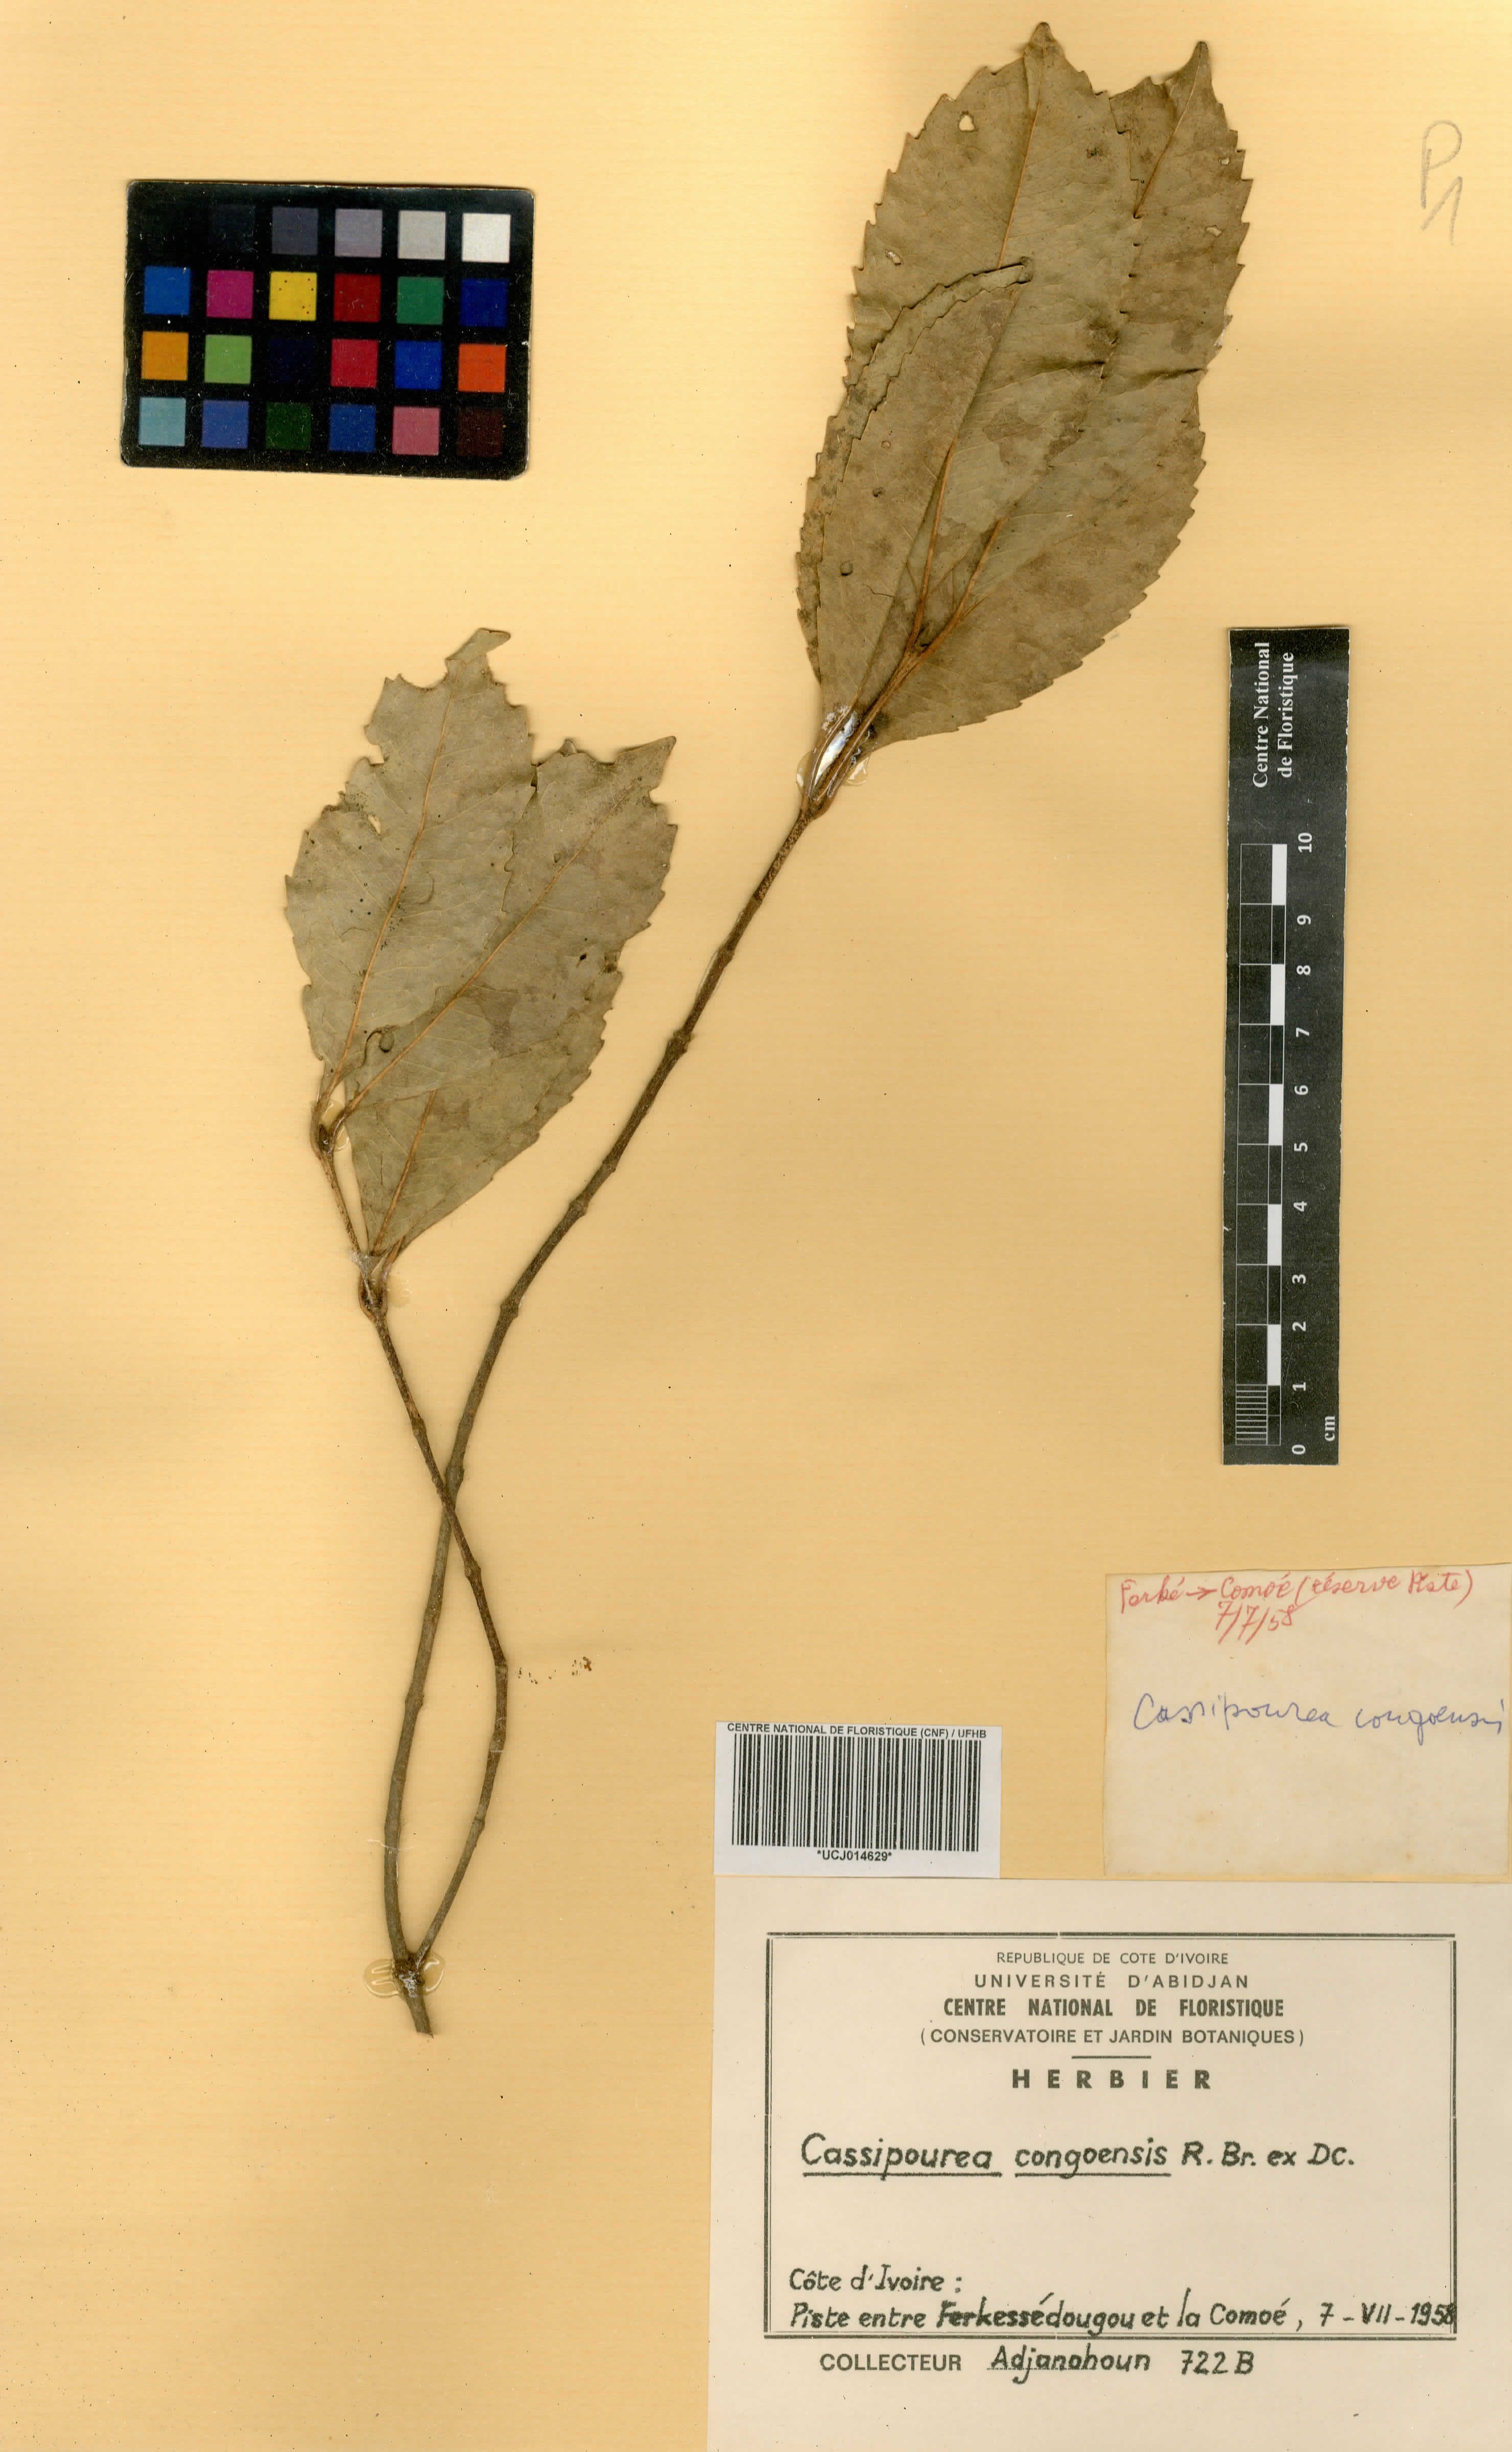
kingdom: Plantae
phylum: Tracheophyta
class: Magnoliopsida
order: Malpighiales
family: Rhizophoraceae
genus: Cassipourea
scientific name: Cassipourea congoensis
